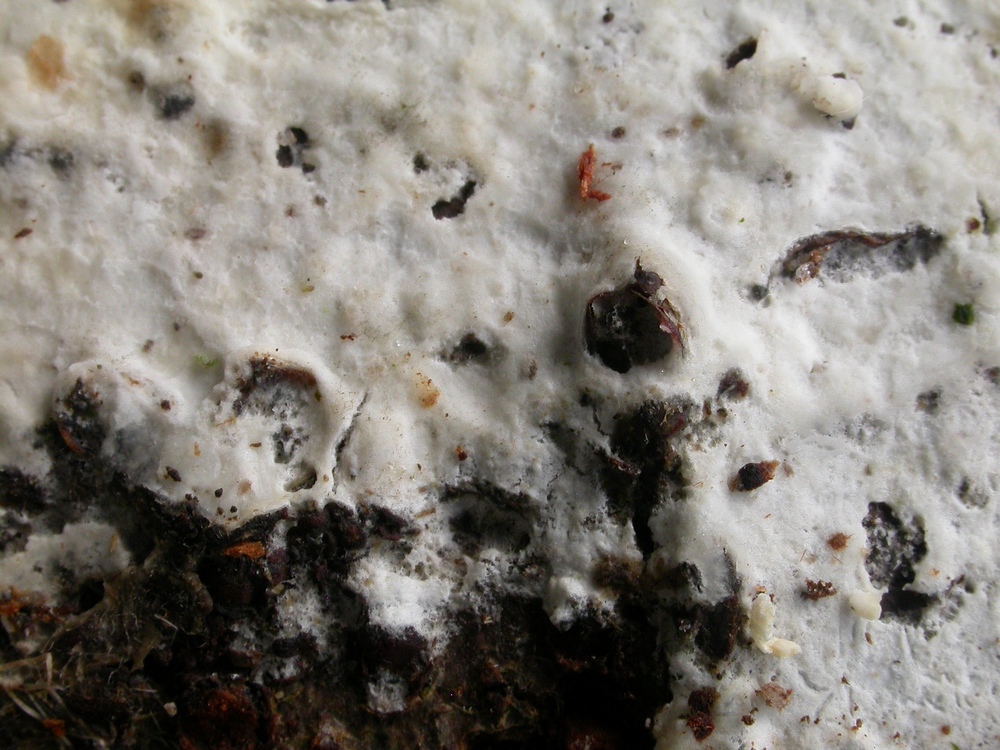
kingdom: Fungi
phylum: Basidiomycota
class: Agaricomycetes
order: Agaricales
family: Radulomycetaceae
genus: Radulomyces
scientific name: Radulomyces confluens
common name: glat naftalinskind
